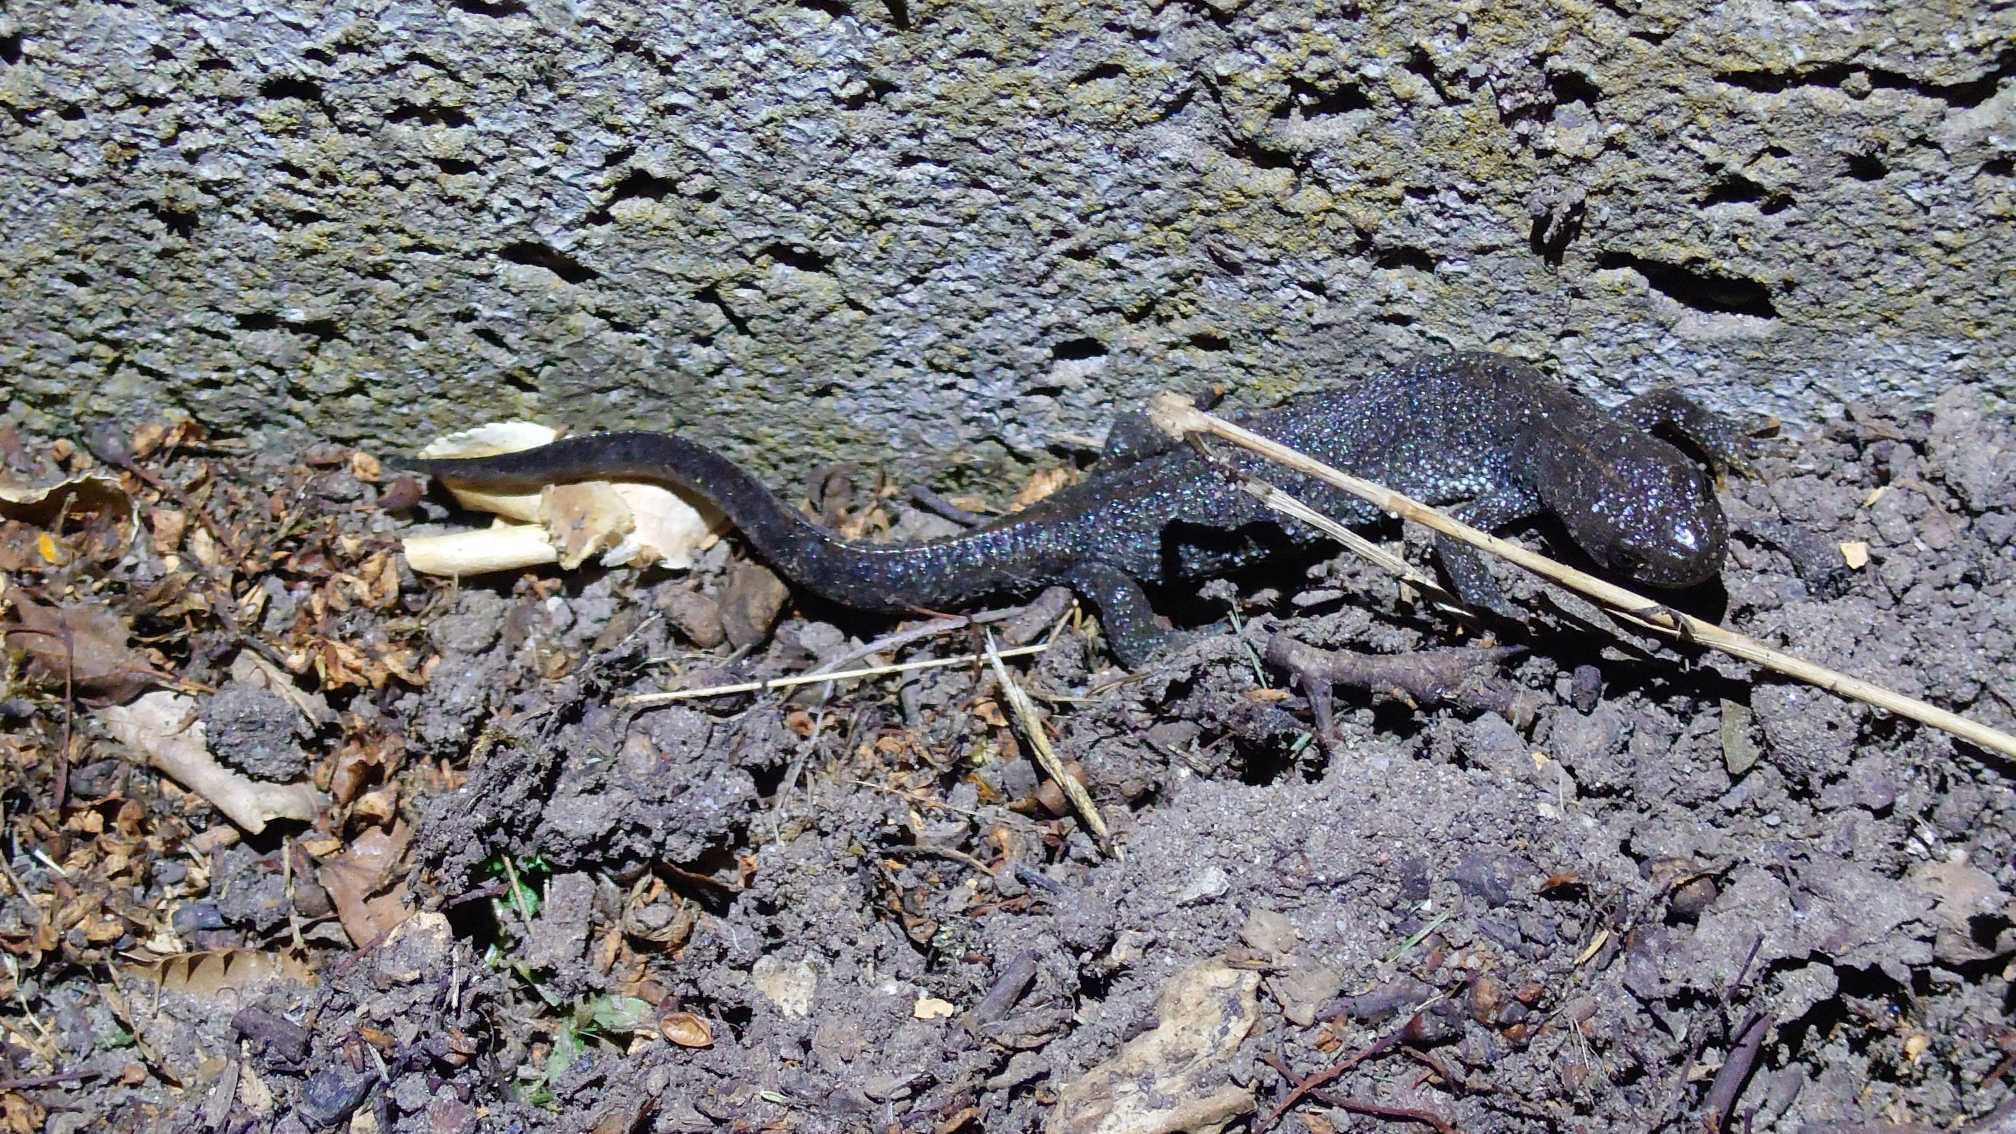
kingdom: Animalia
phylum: Chordata
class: Amphibia
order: Caudata
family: Salamandridae
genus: Triturus
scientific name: Triturus cristatus
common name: Stor vandsalamander
